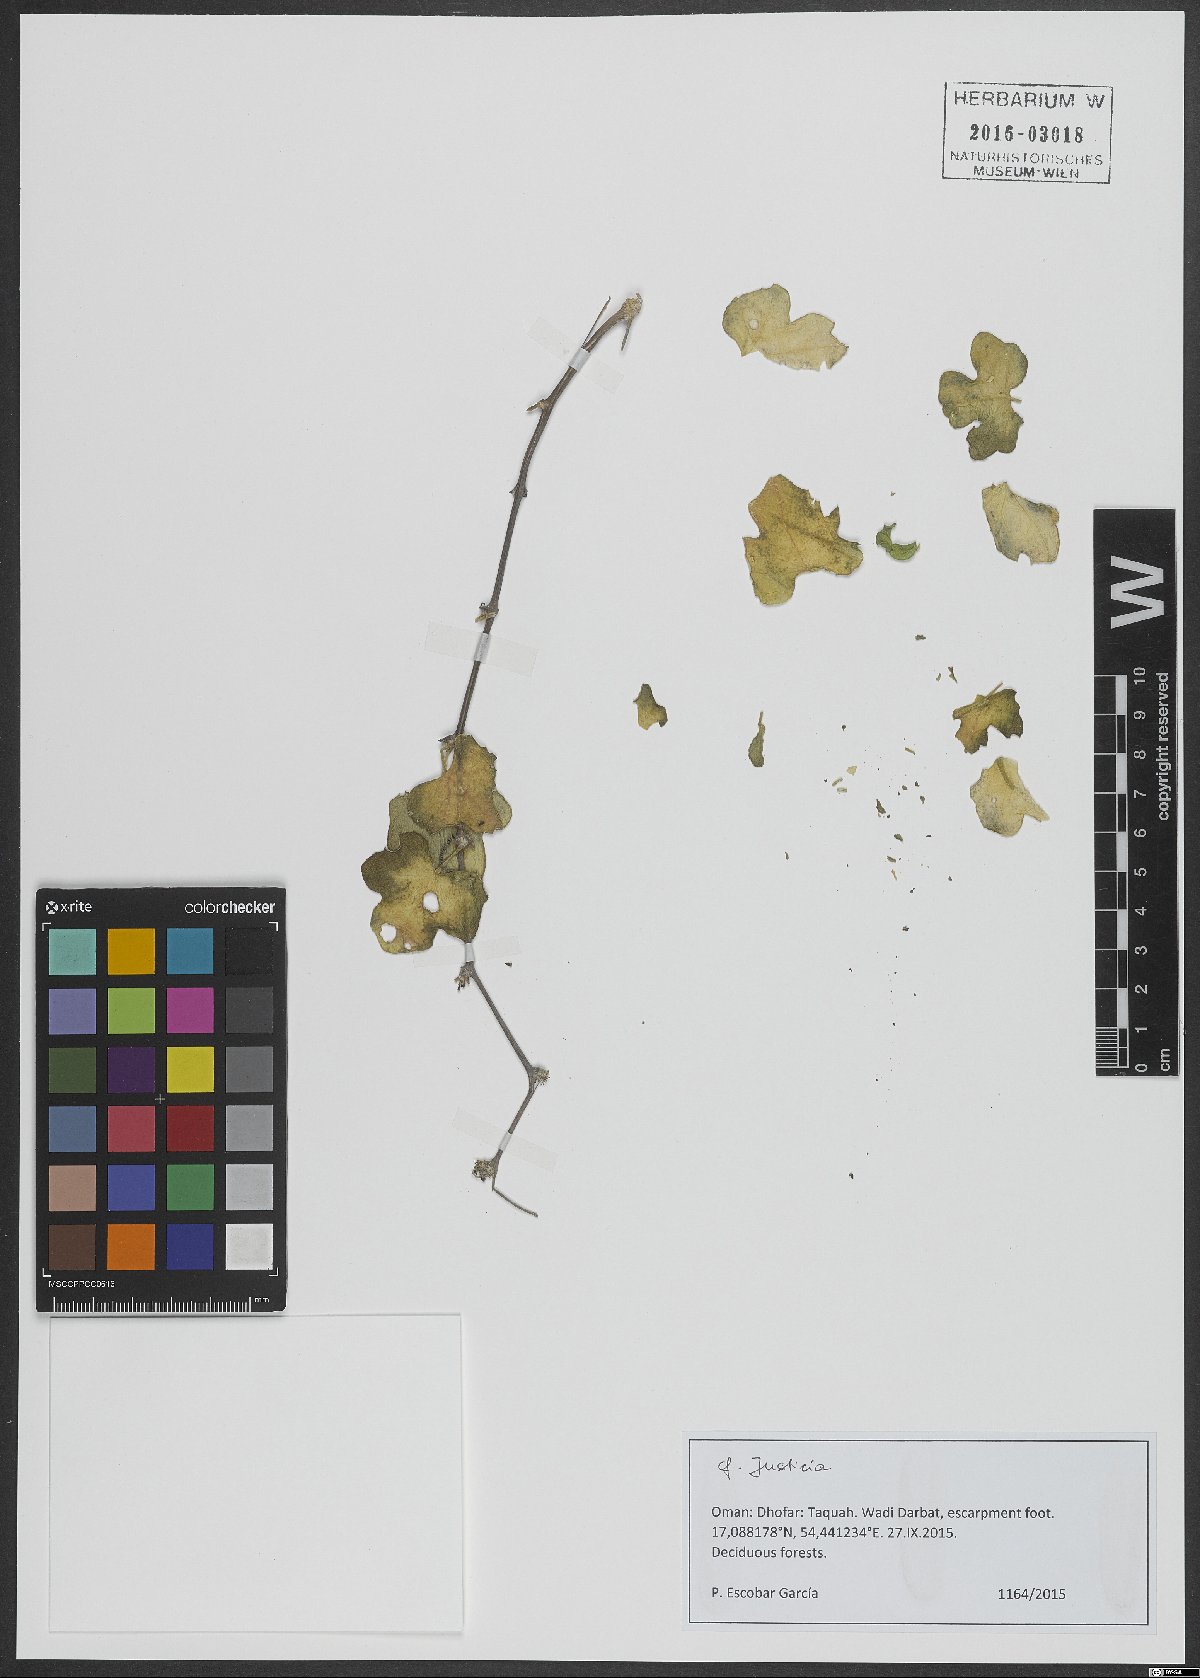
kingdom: Plantae
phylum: Tracheophyta
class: Magnoliopsida
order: Lamiales
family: Acanthaceae
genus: Justicia
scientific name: Justicia
